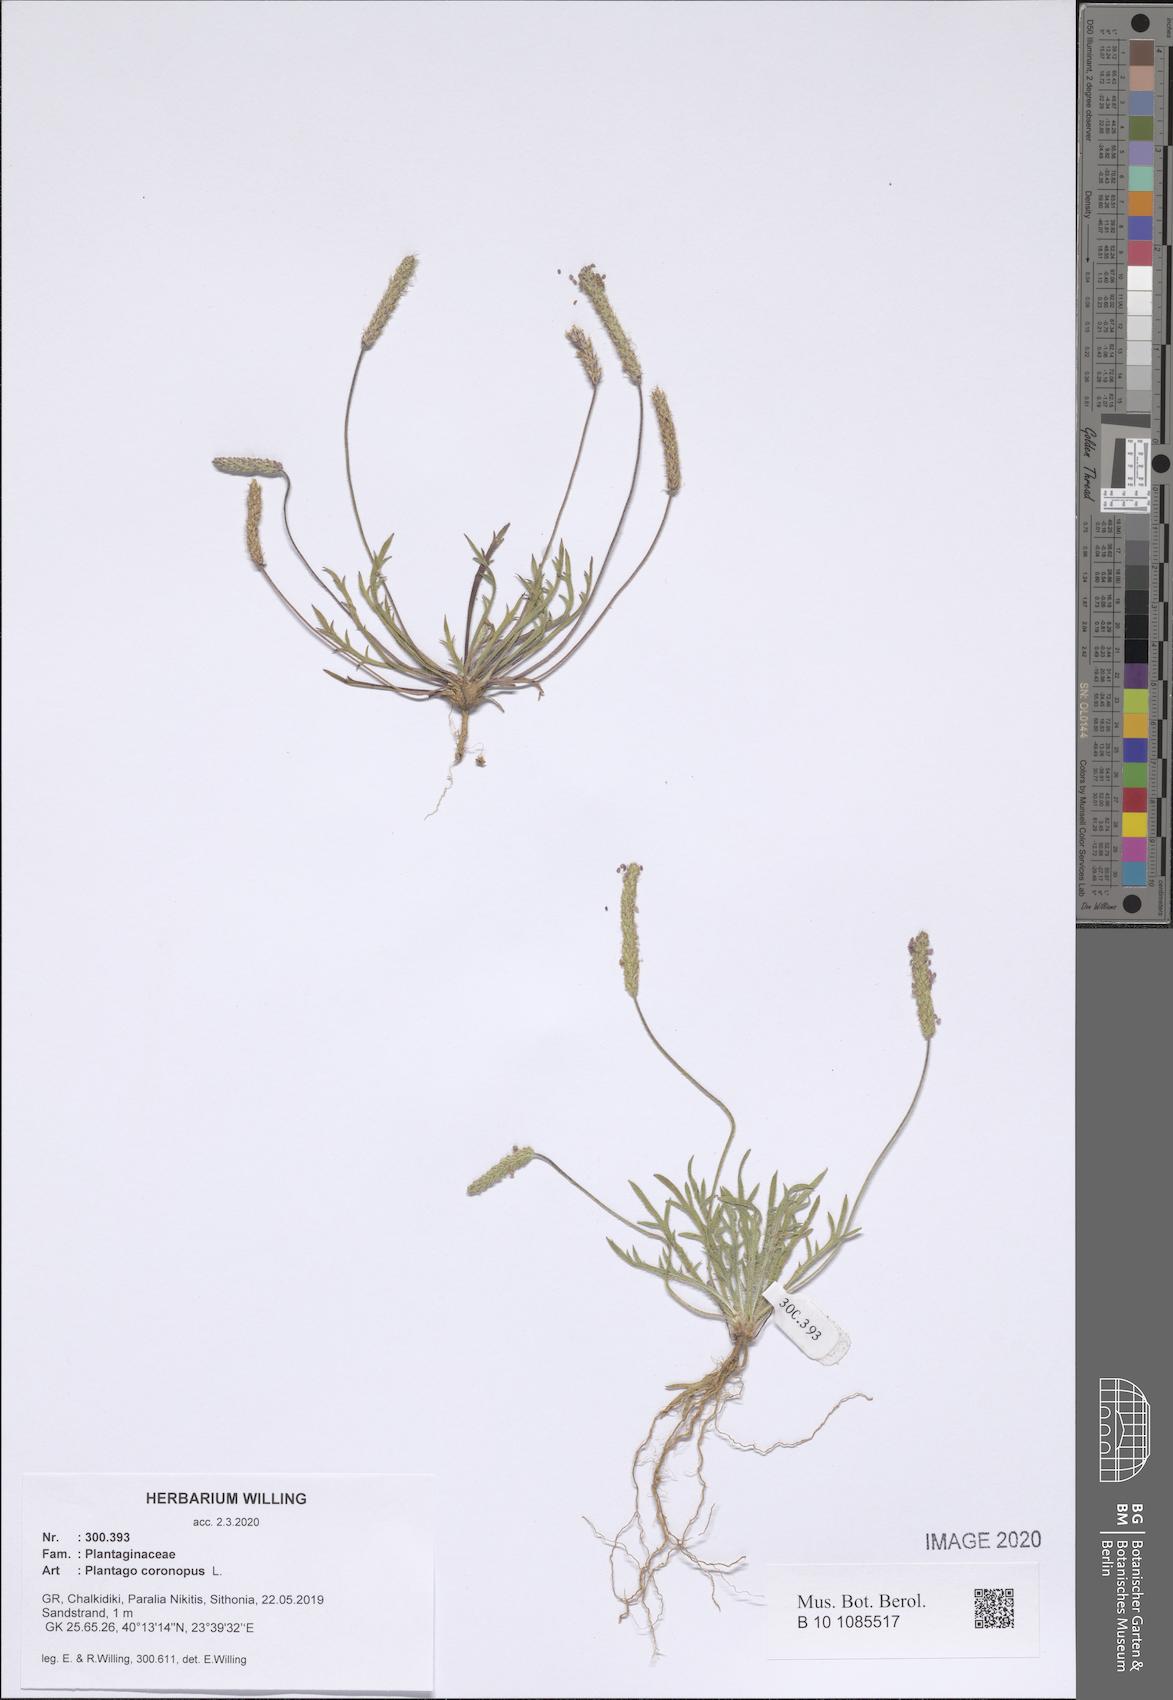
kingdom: Plantae
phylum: Tracheophyta
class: Magnoliopsida
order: Lamiales
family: Plantaginaceae
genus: Plantago
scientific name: Plantago coronopus
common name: Buck's-horn plantain
